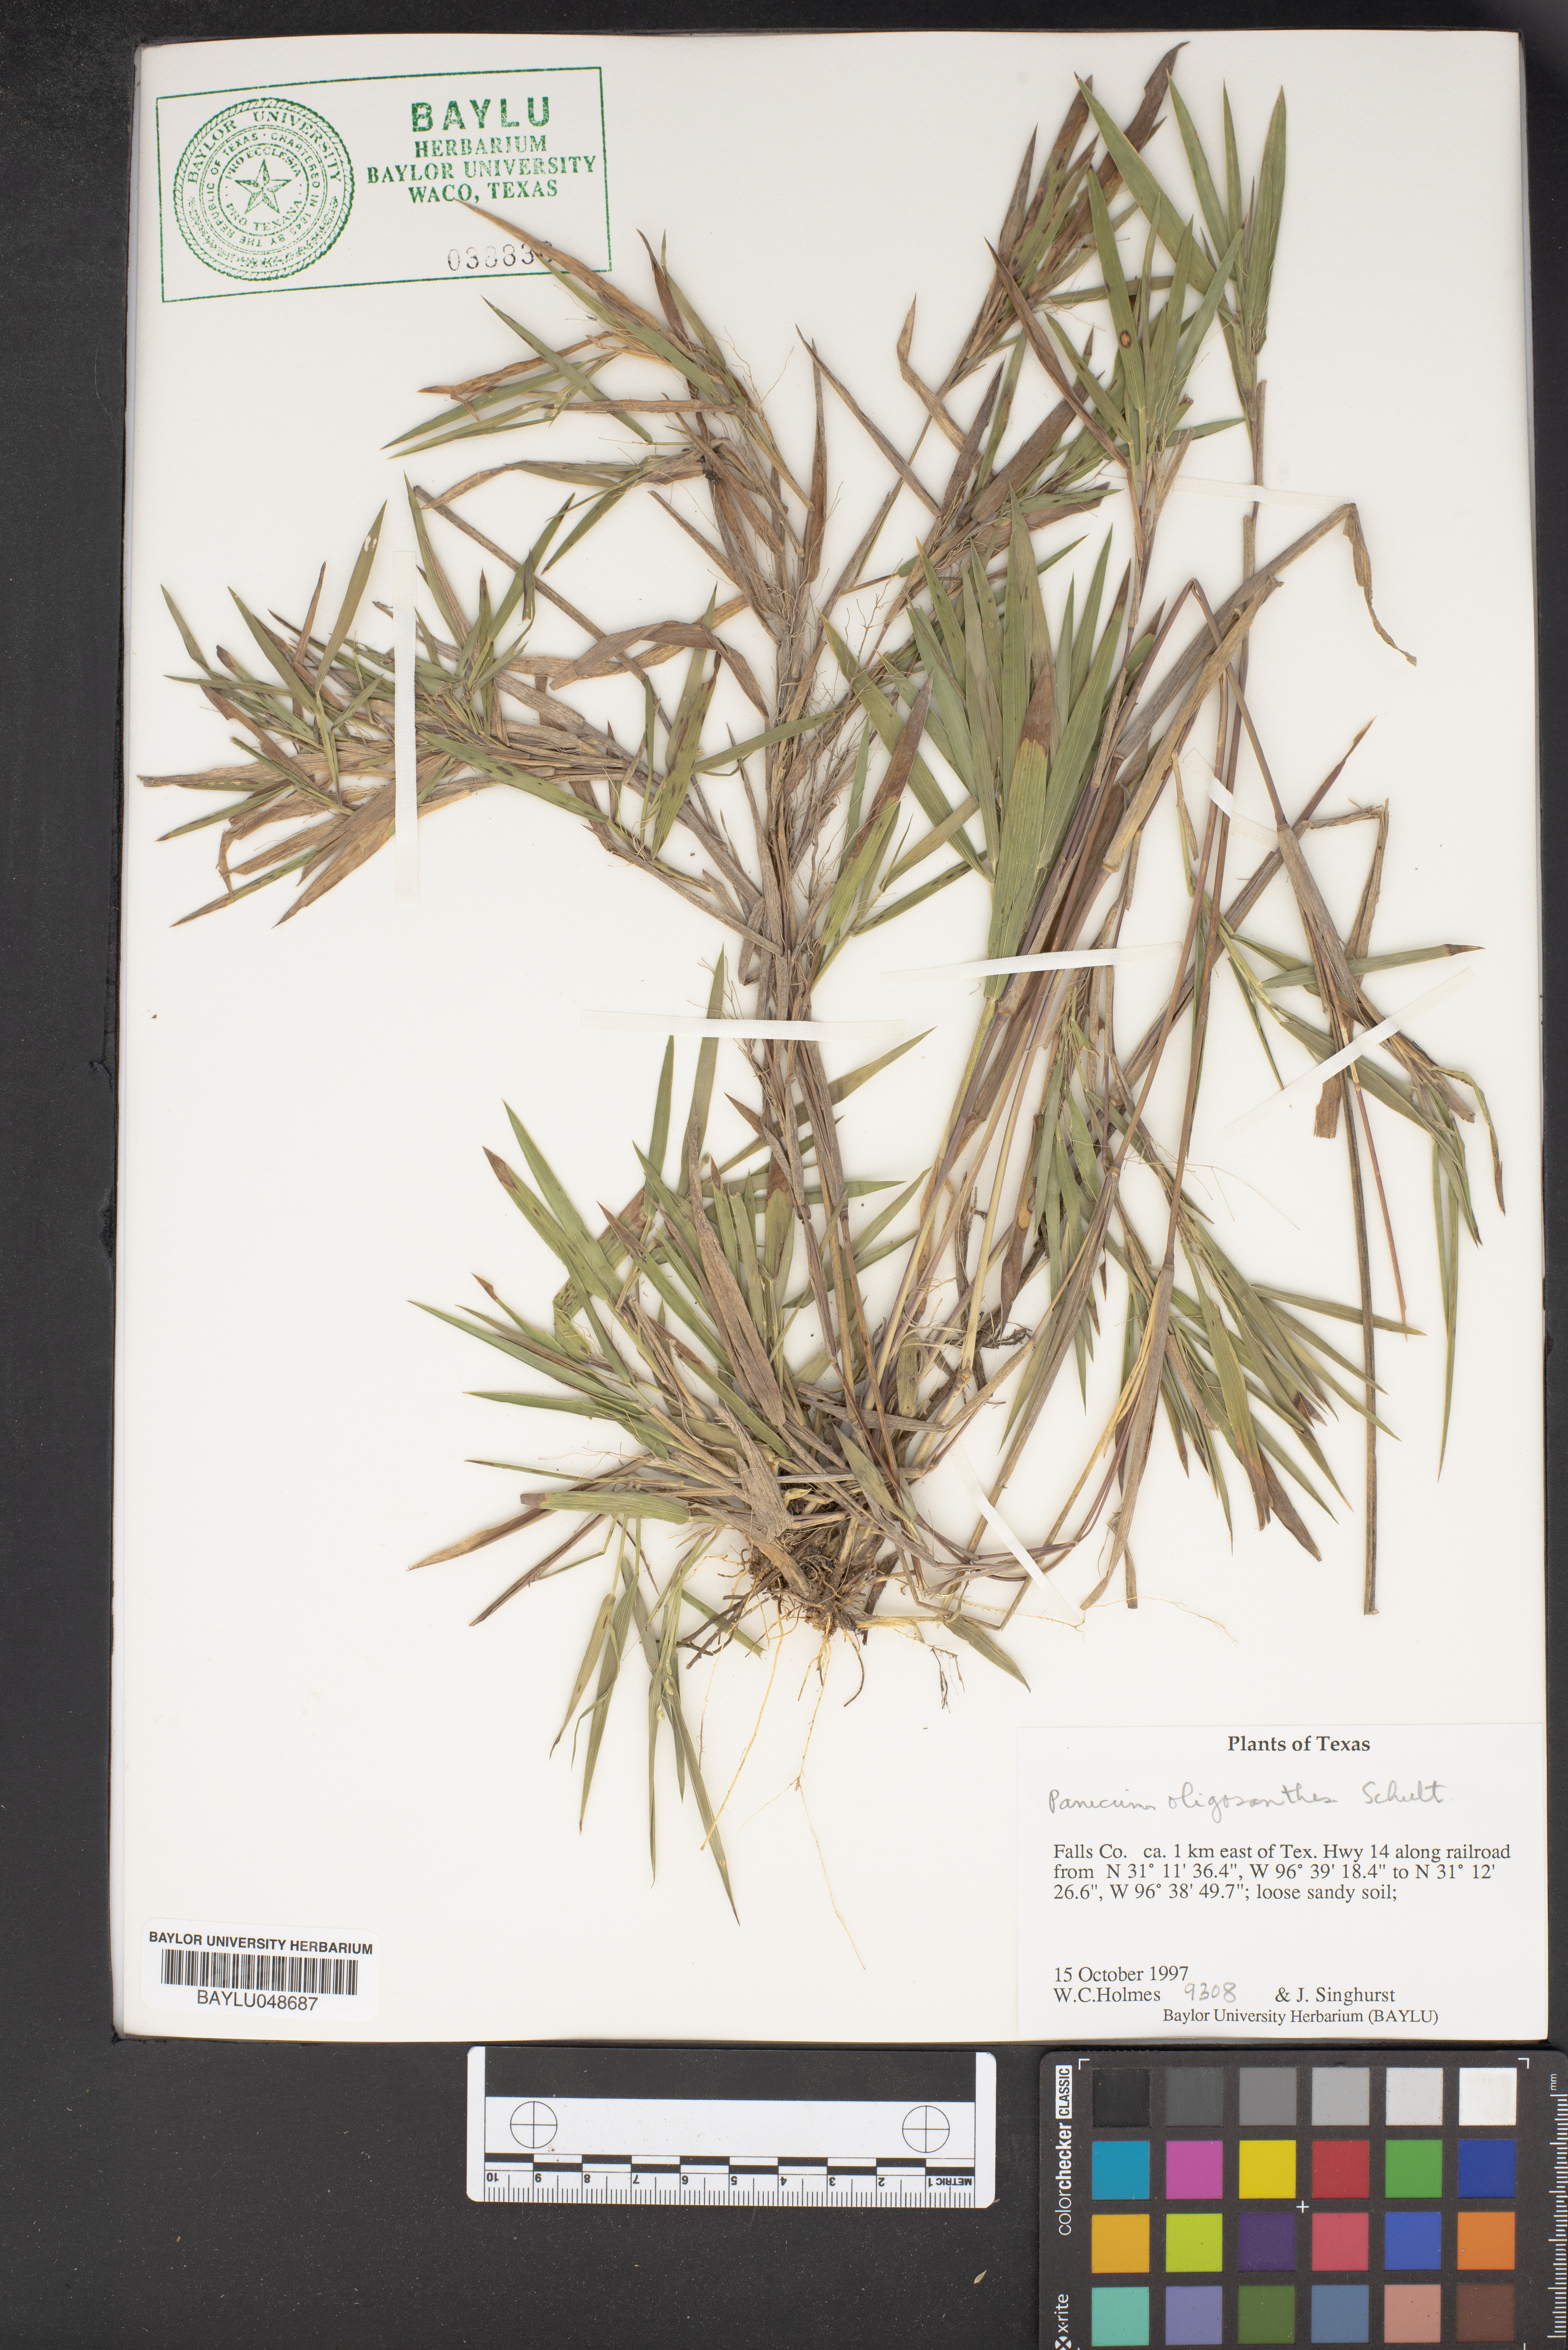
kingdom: Plantae
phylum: Tracheophyta
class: Liliopsida
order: Poales
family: Poaceae
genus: Dichanthelium
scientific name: Dichanthelium oligosanthes
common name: Few-anther obscuregrass
